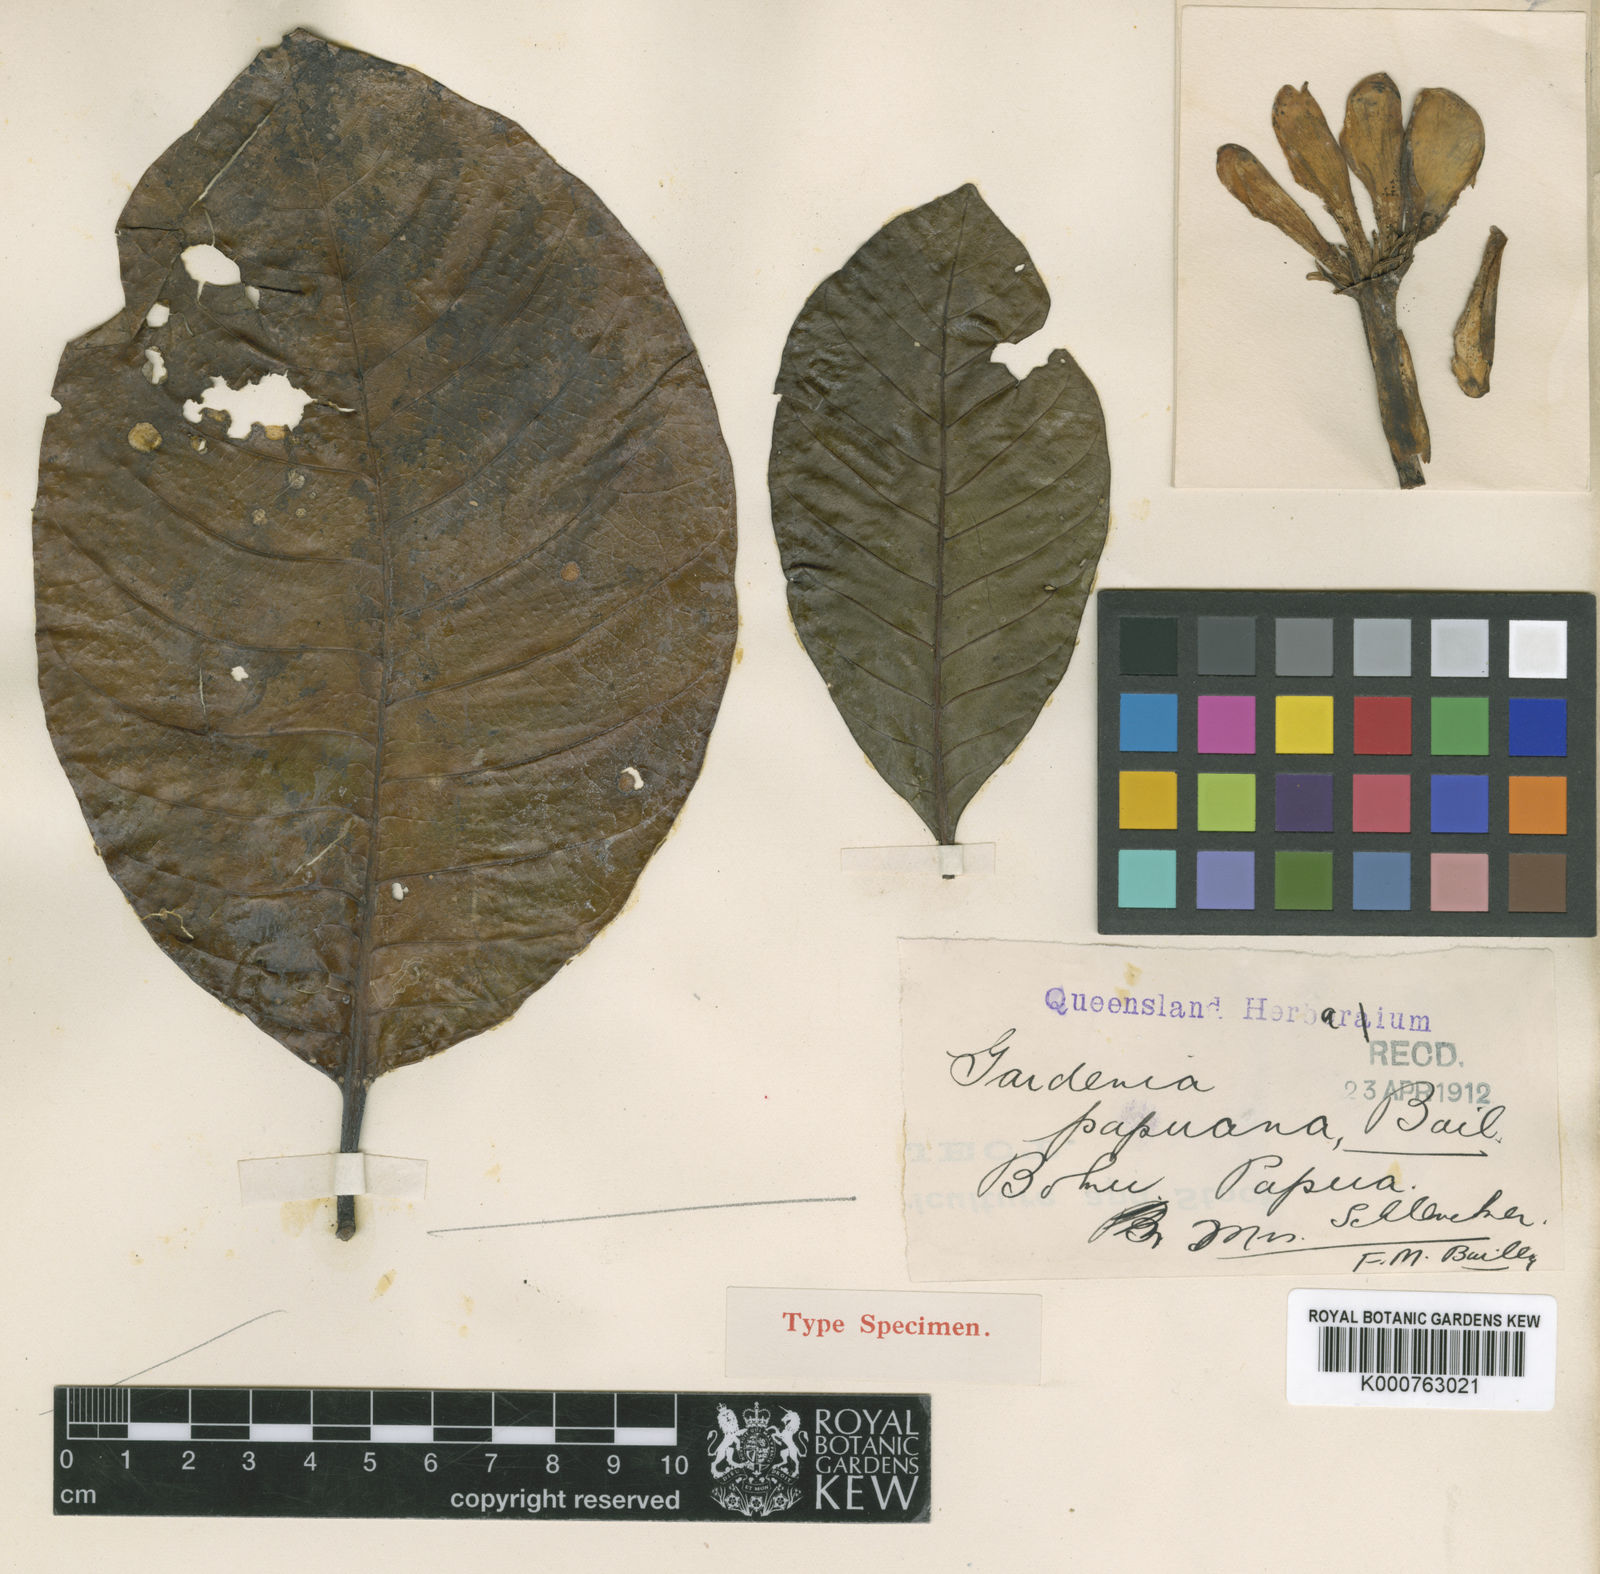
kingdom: Plantae
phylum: Tracheophyta
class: Magnoliopsida
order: Gentianales
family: Rubiaceae
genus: Gardenia
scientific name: Gardenia papuana
